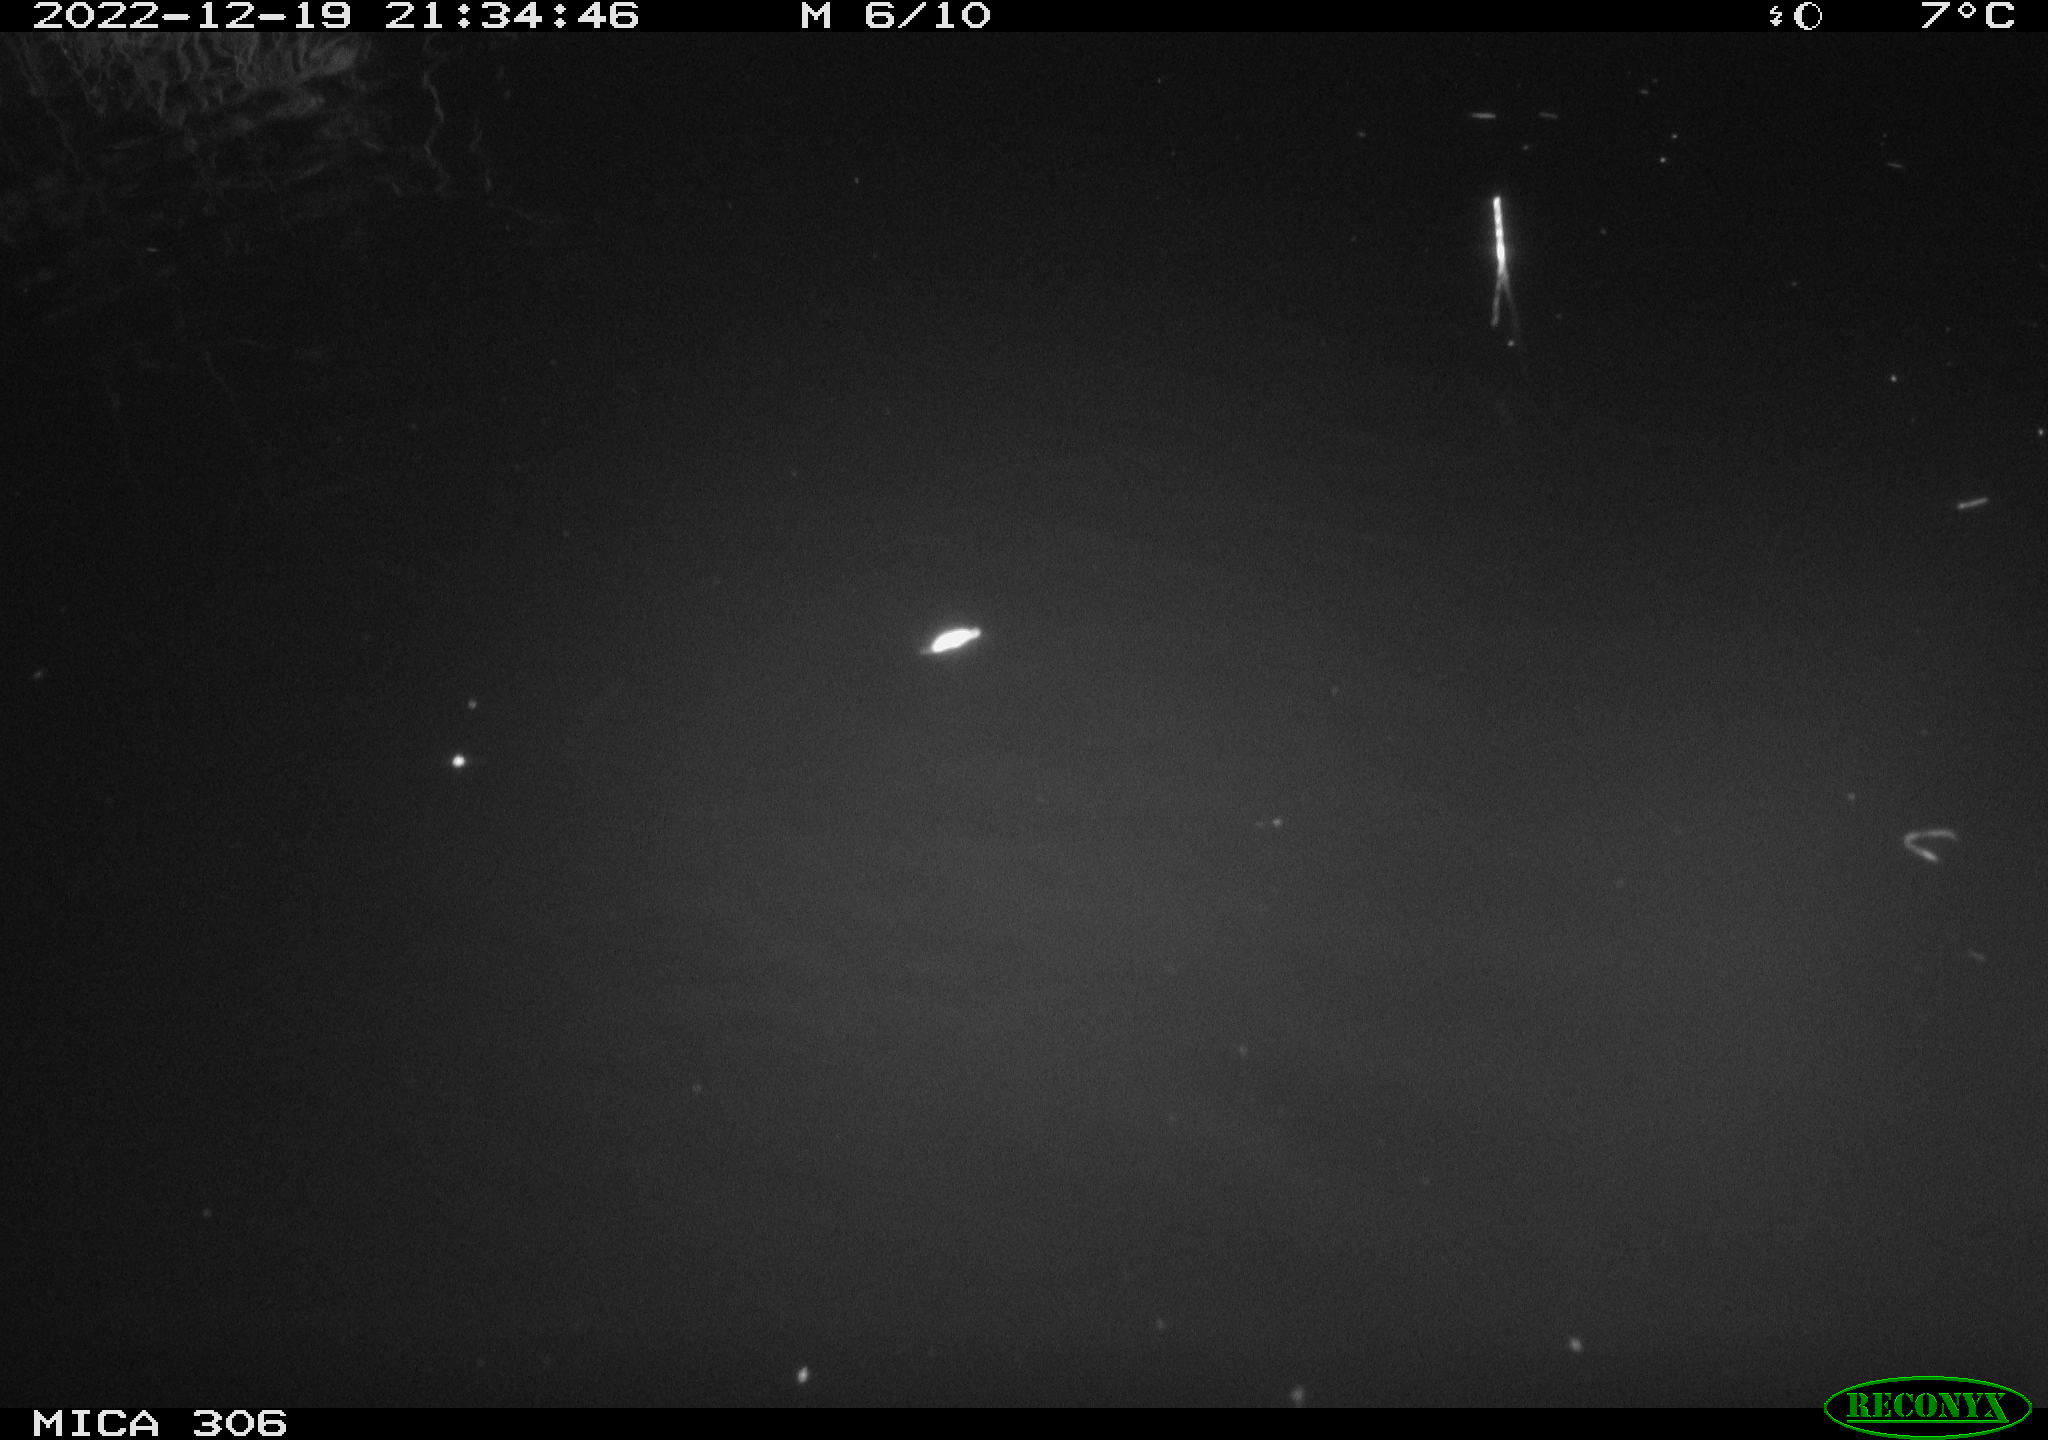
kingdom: Animalia
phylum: Chordata
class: Mammalia
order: Rodentia
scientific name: Rodentia
